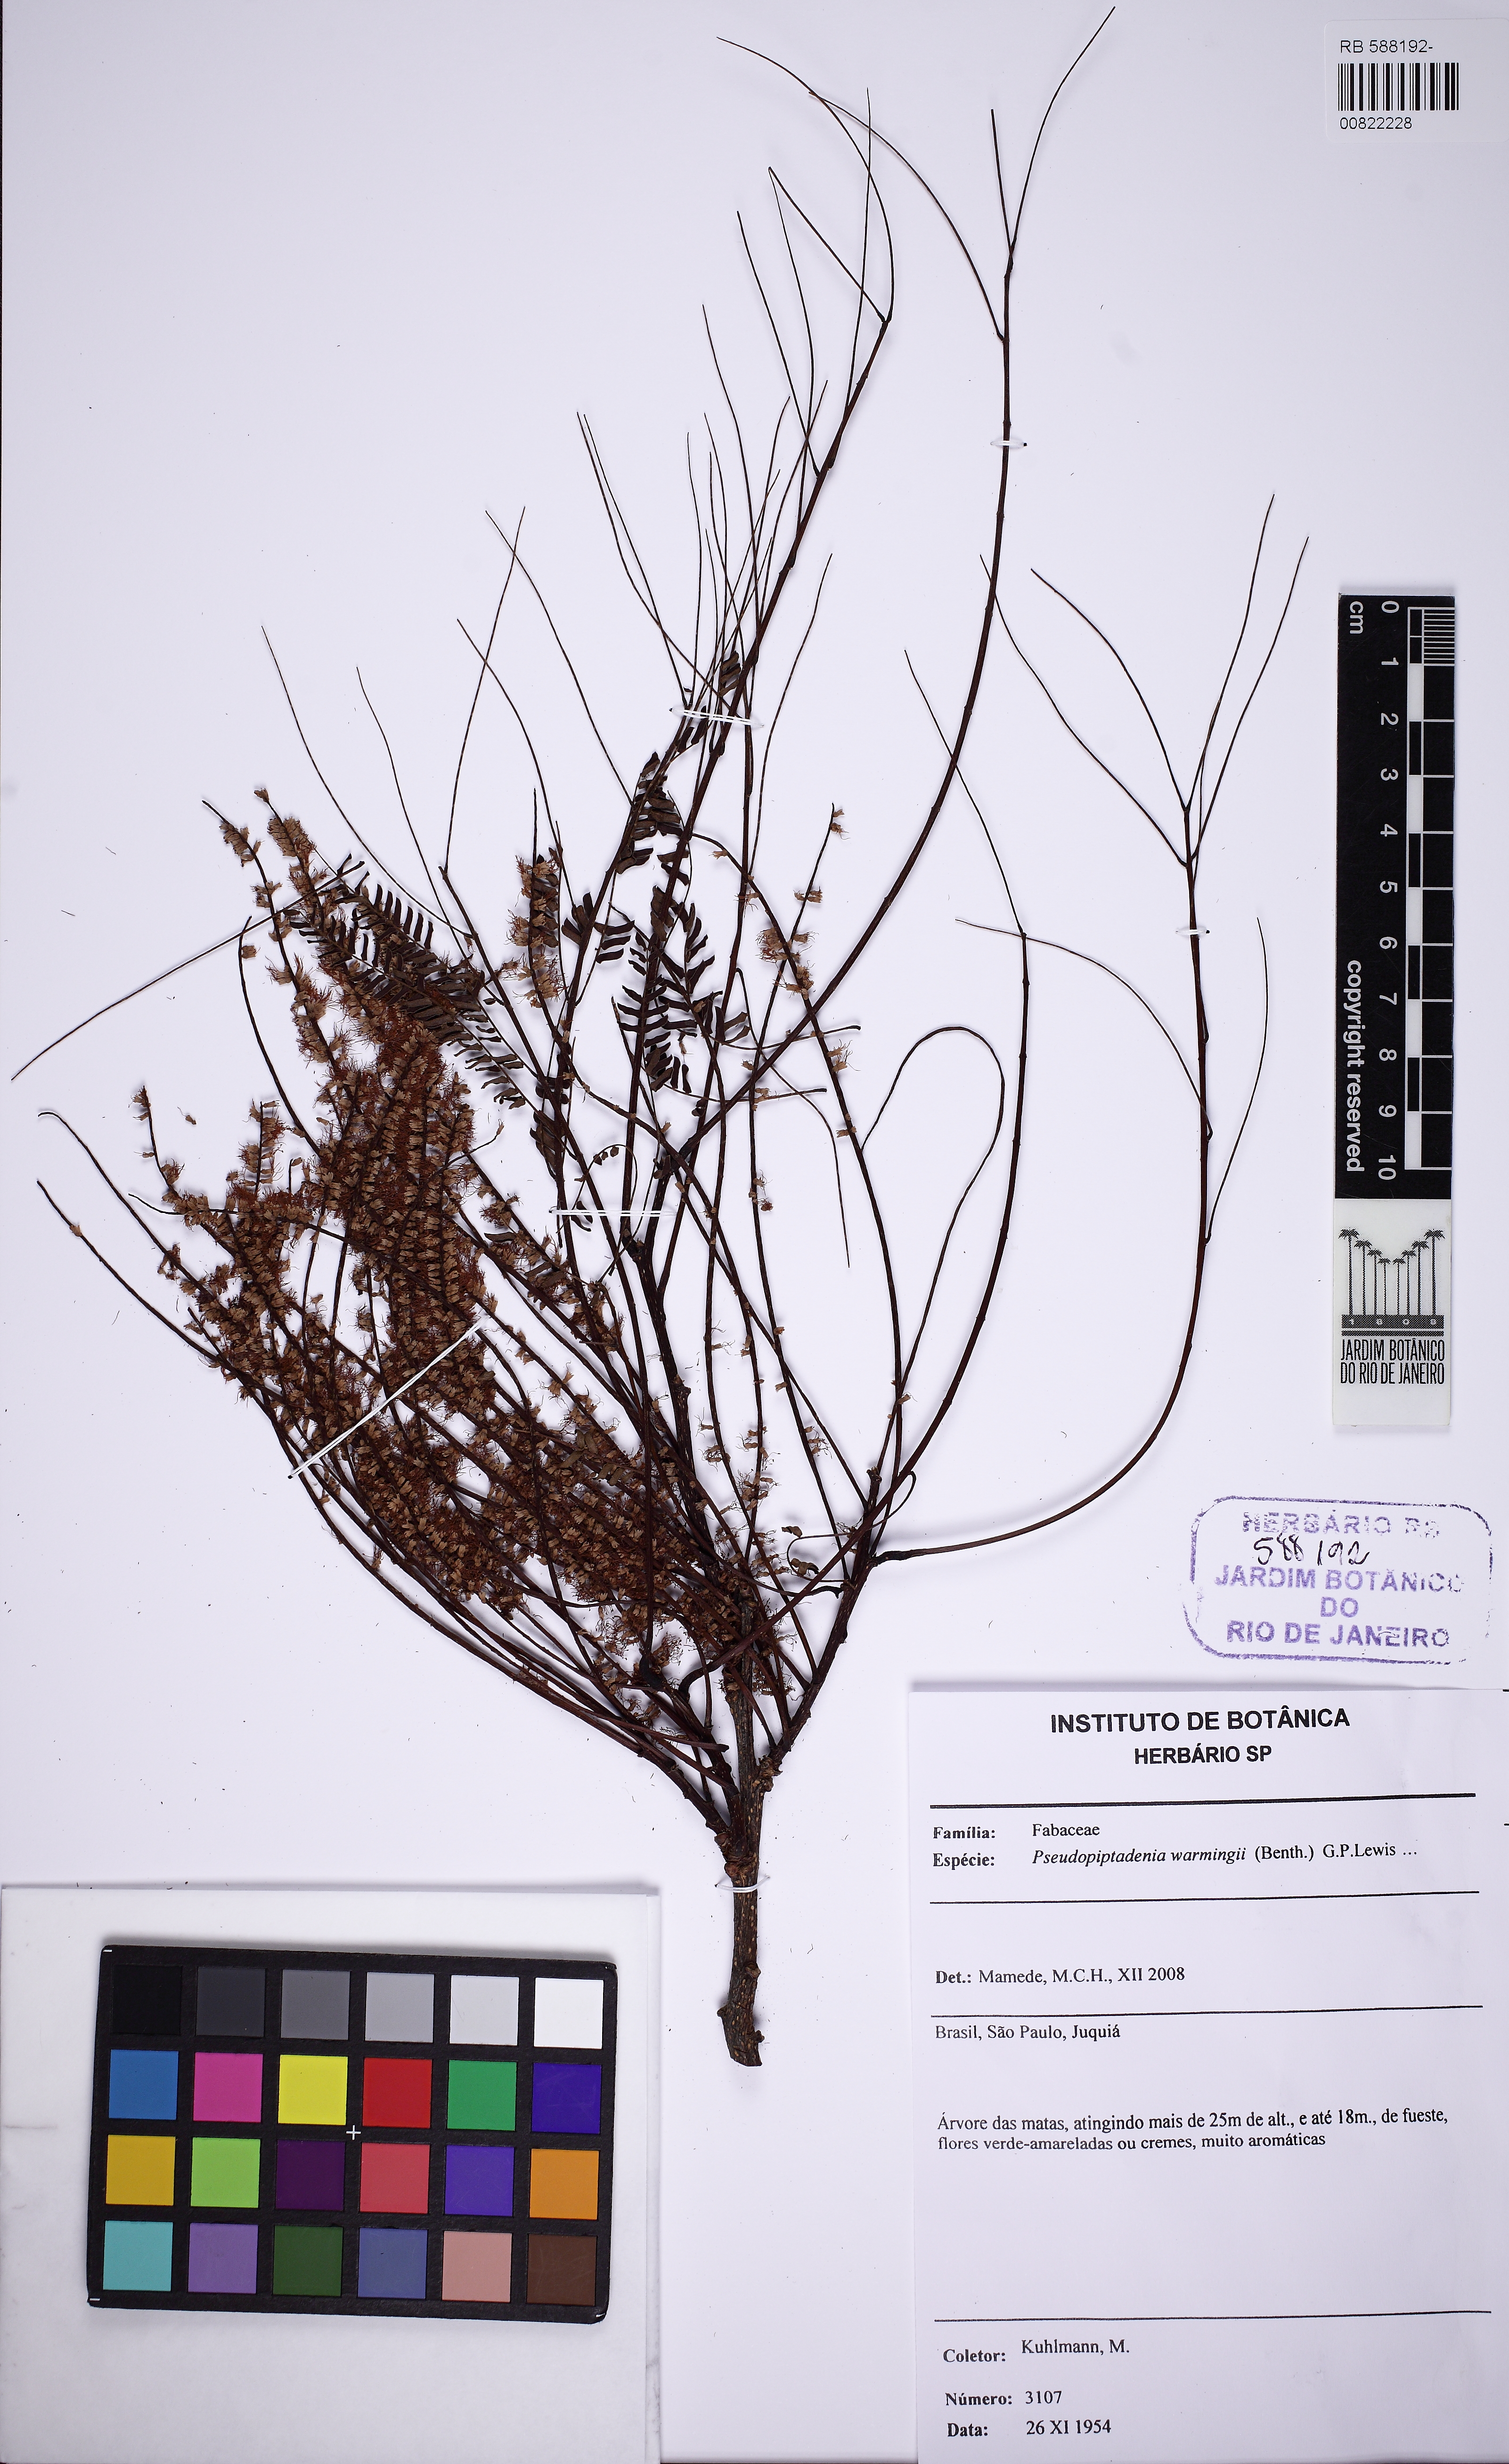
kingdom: Plantae
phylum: Tracheophyta
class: Magnoliopsida
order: Fabales
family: Fabaceae
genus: Pseudopiptadenia
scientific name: Pseudopiptadenia warmingii
